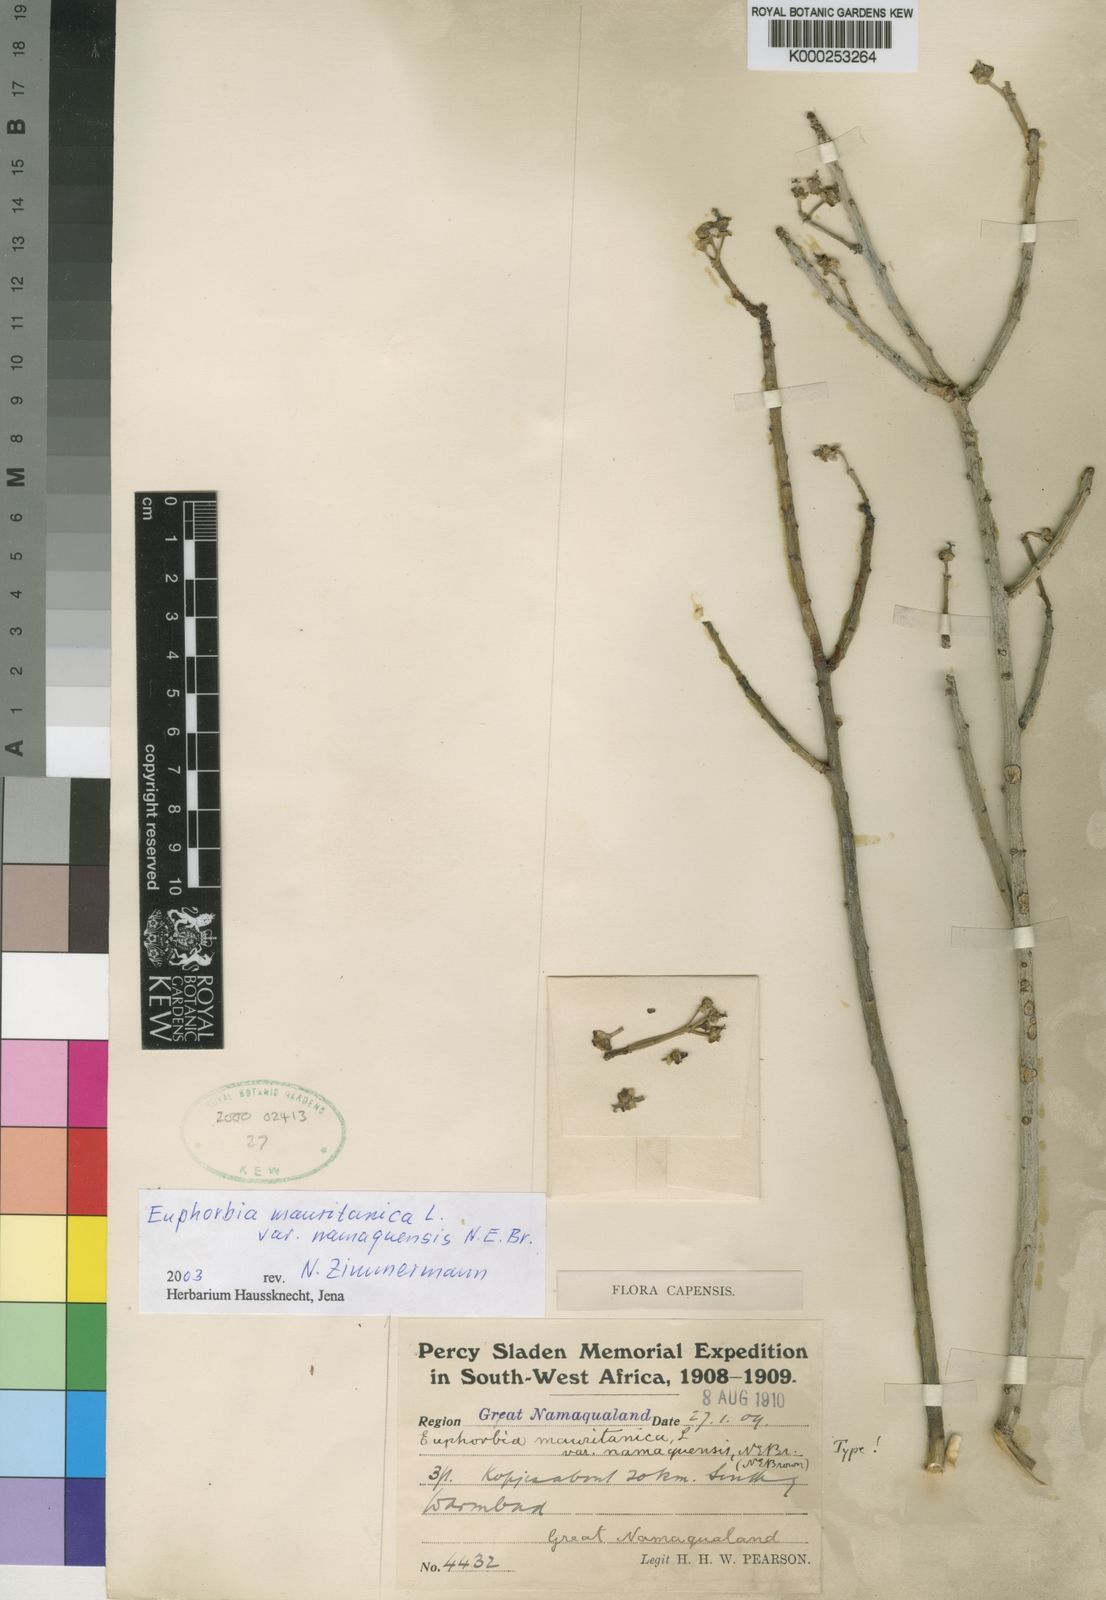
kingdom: Plantae
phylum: Tracheophyta
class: Magnoliopsida
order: Malpighiales
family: Euphorbiaceae
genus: Euphorbia
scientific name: Euphorbia mauritanica
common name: Jackal's-food
